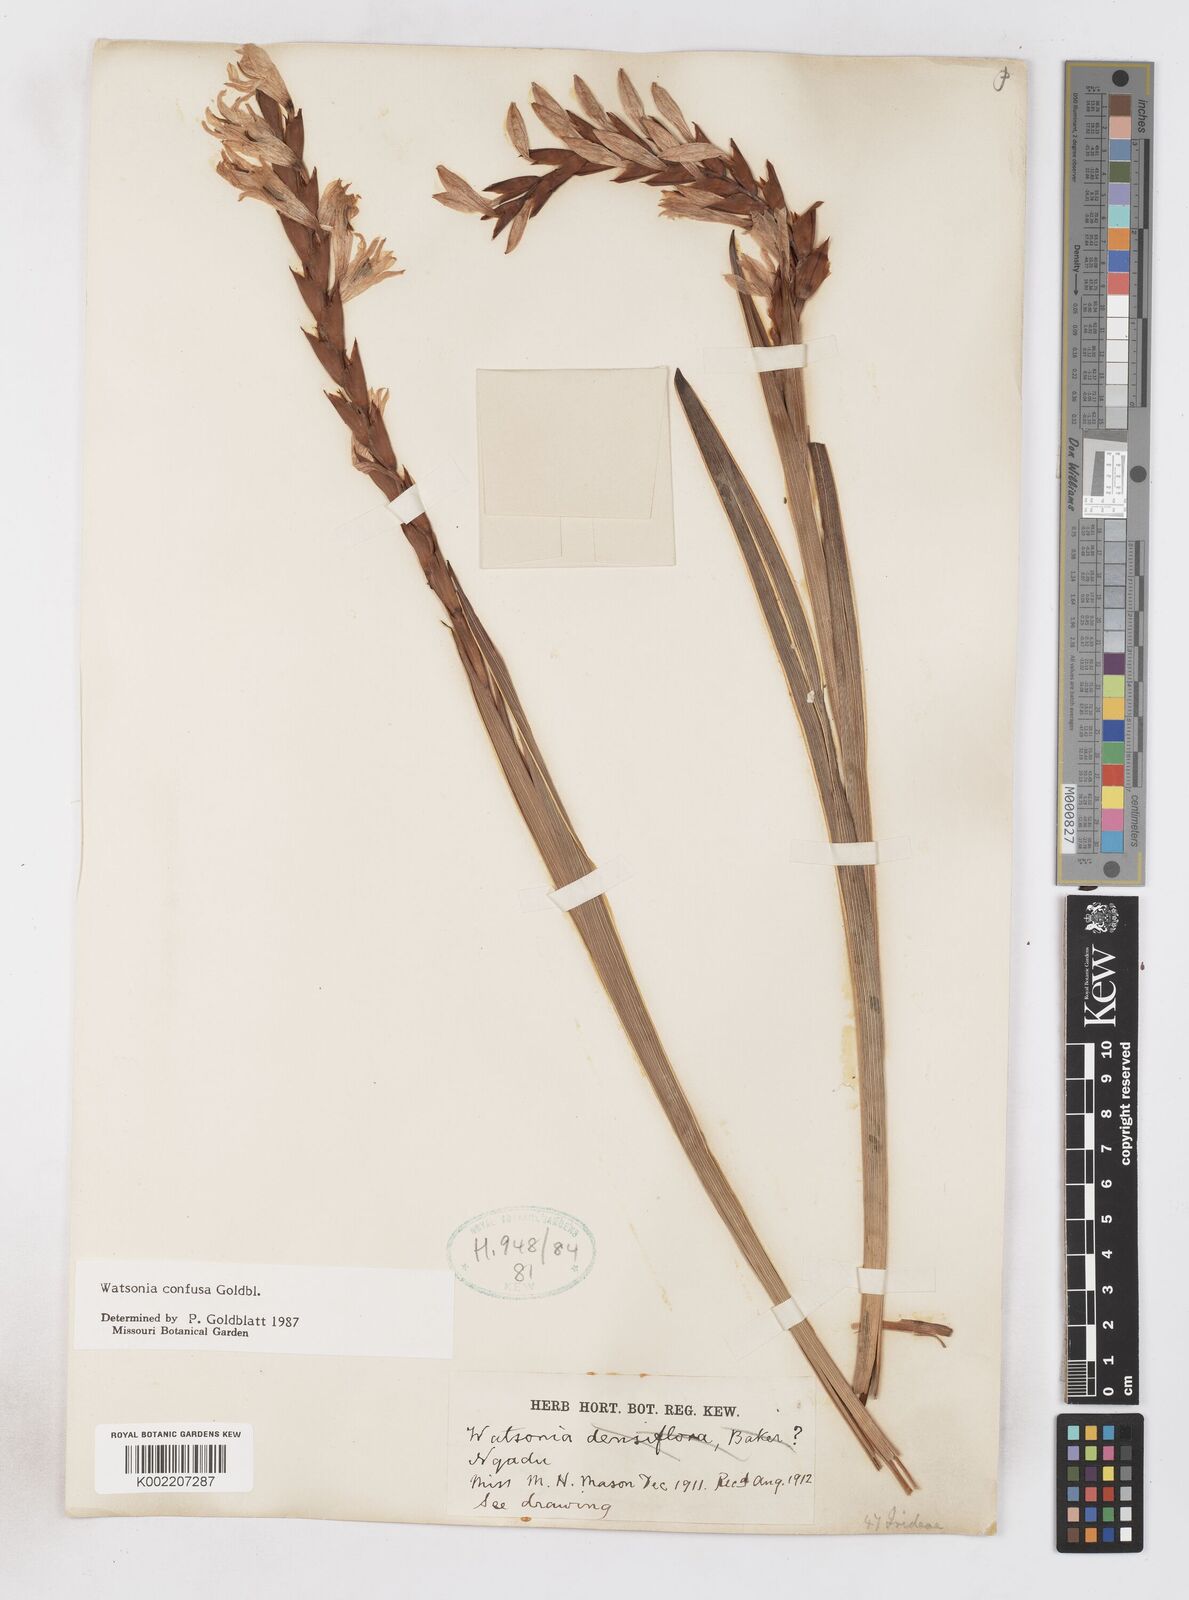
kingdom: Plantae
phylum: Tracheophyta
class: Liliopsida
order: Asparagales
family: Iridaceae
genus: Watsonia
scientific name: Watsonia confusa
